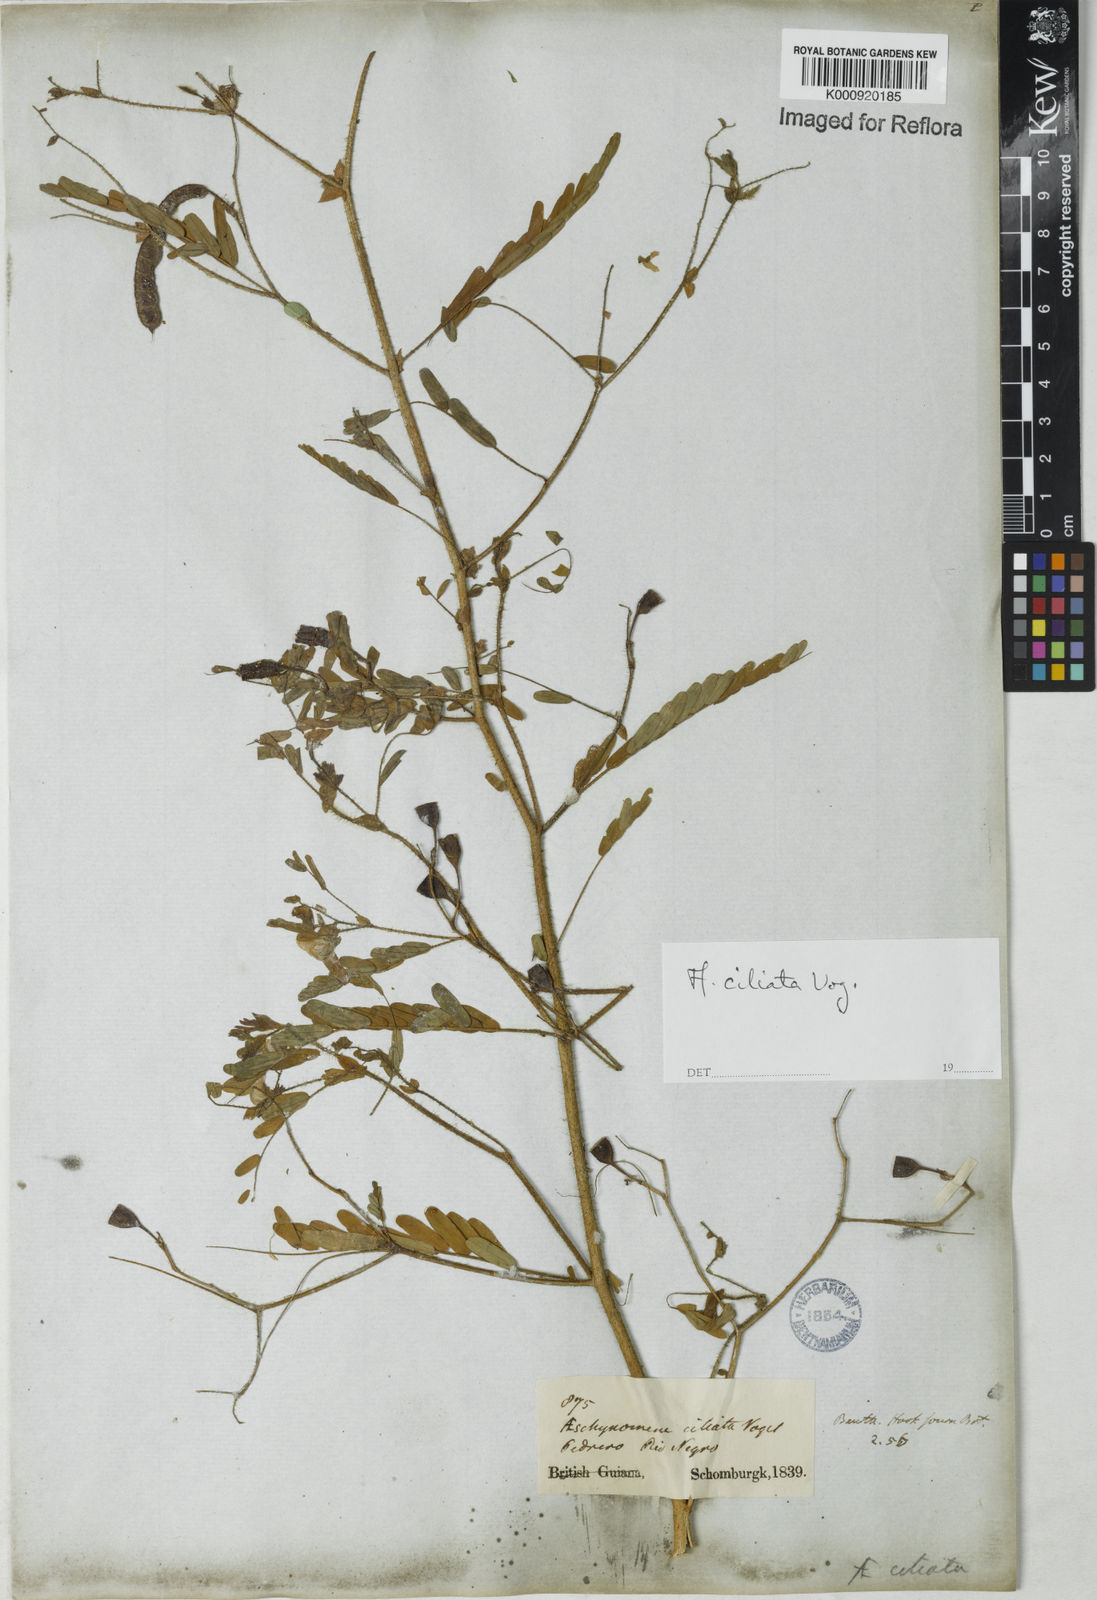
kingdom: Plantae
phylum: Tracheophyta
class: Magnoliopsida
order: Fabales
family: Fabaceae
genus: Aeschynomene
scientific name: Aeschynomene ciliata
